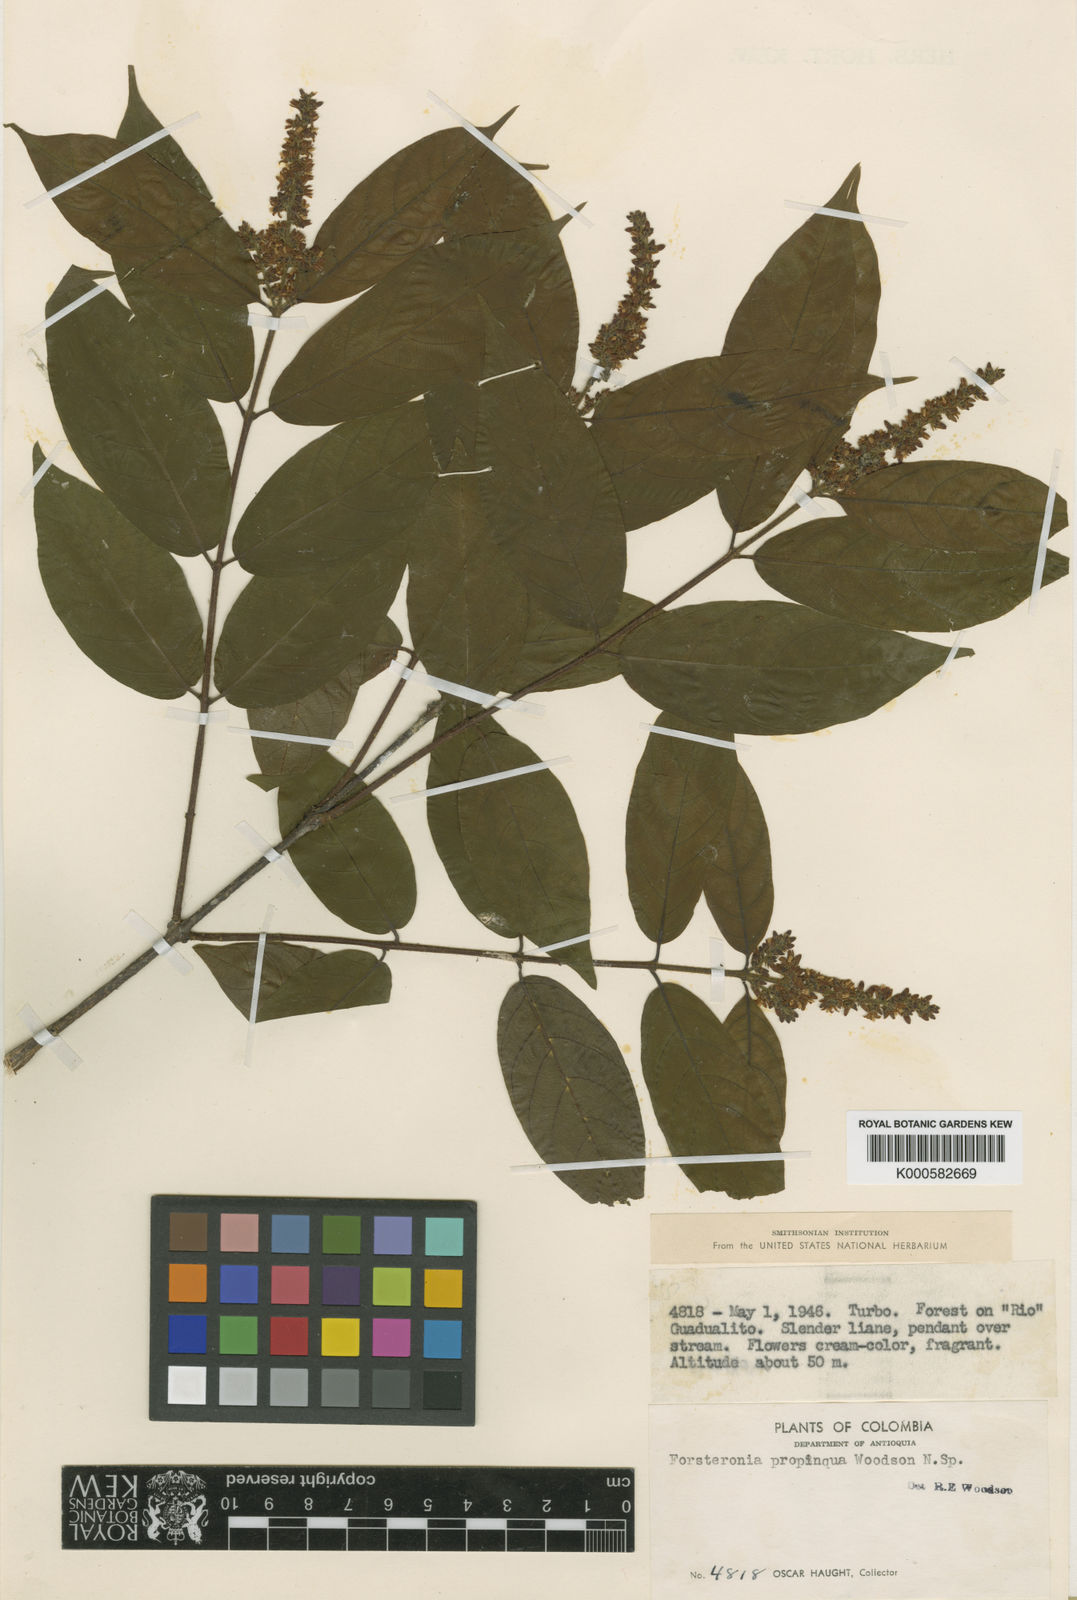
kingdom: Plantae
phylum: Tracheophyta
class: Magnoliopsida
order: Gentianales
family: Apocynaceae
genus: Forsteronia
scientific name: Forsteronia chiriquensis
